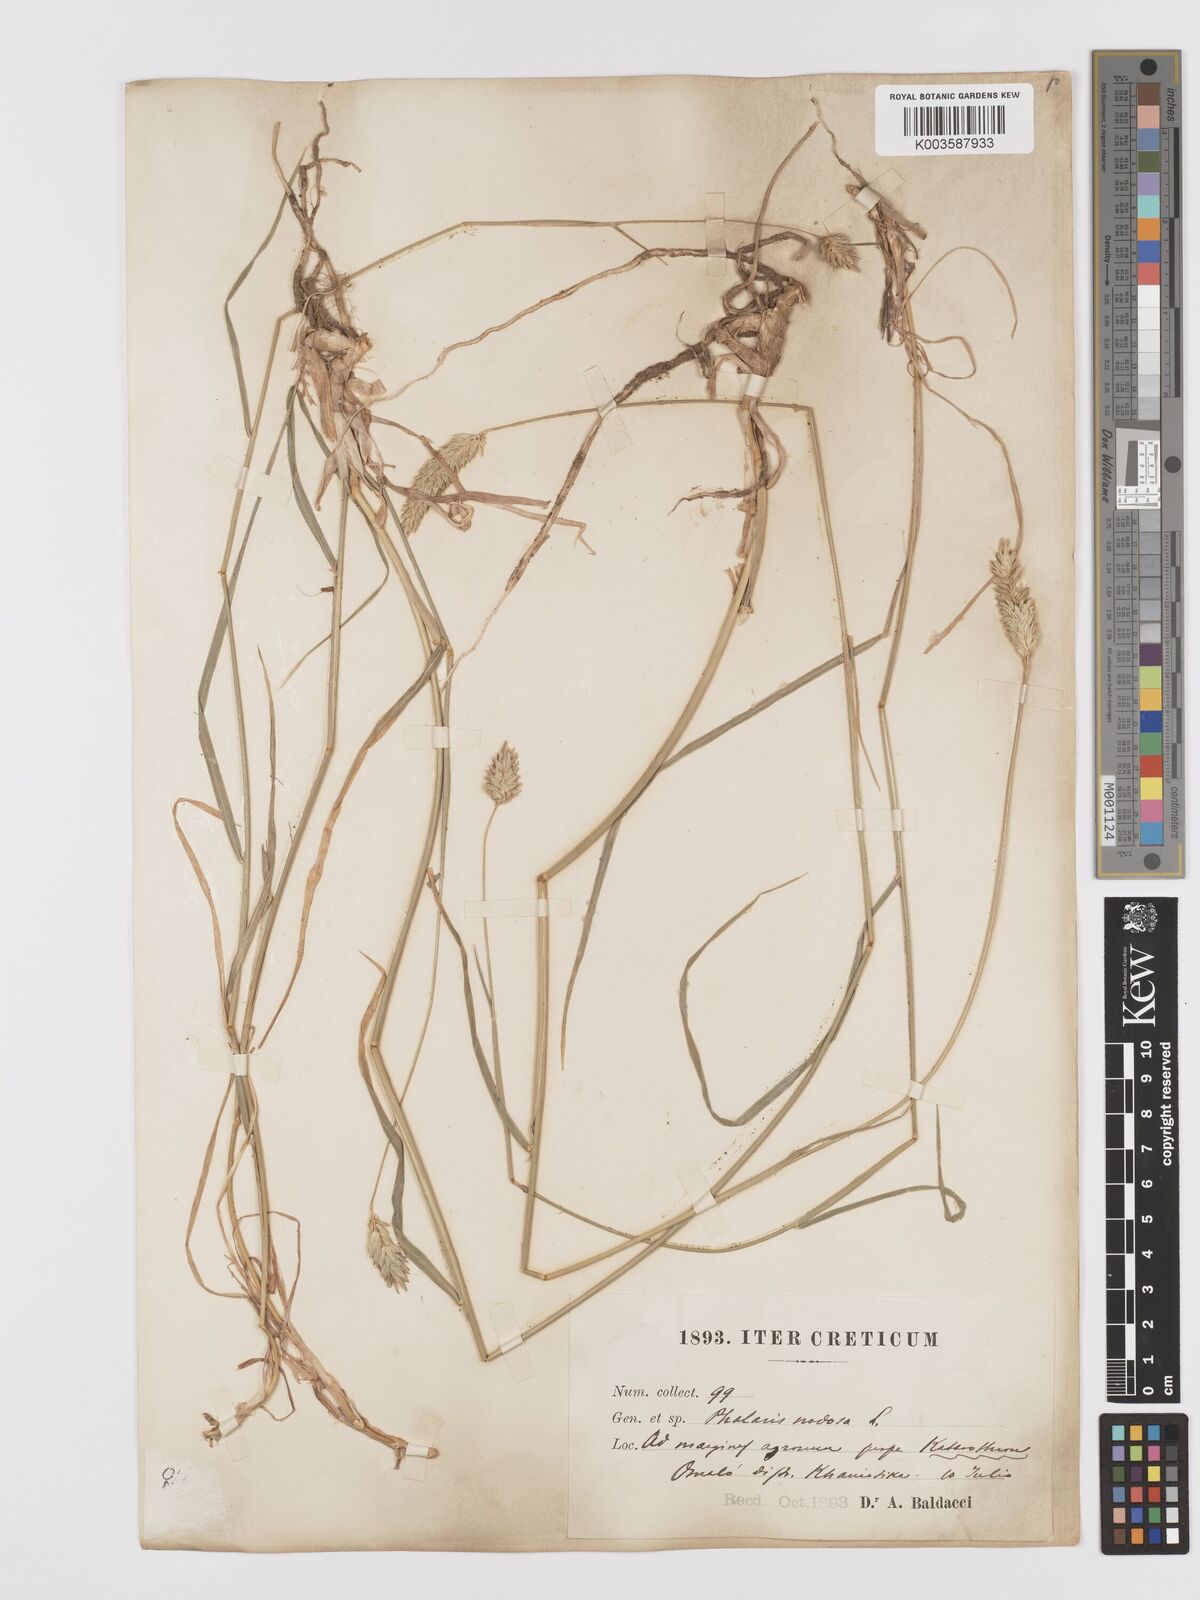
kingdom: Plantae
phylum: Tracheophyta
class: Liliopsida
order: Poales
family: Poaceae
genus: Phalaris
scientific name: Phalaris
